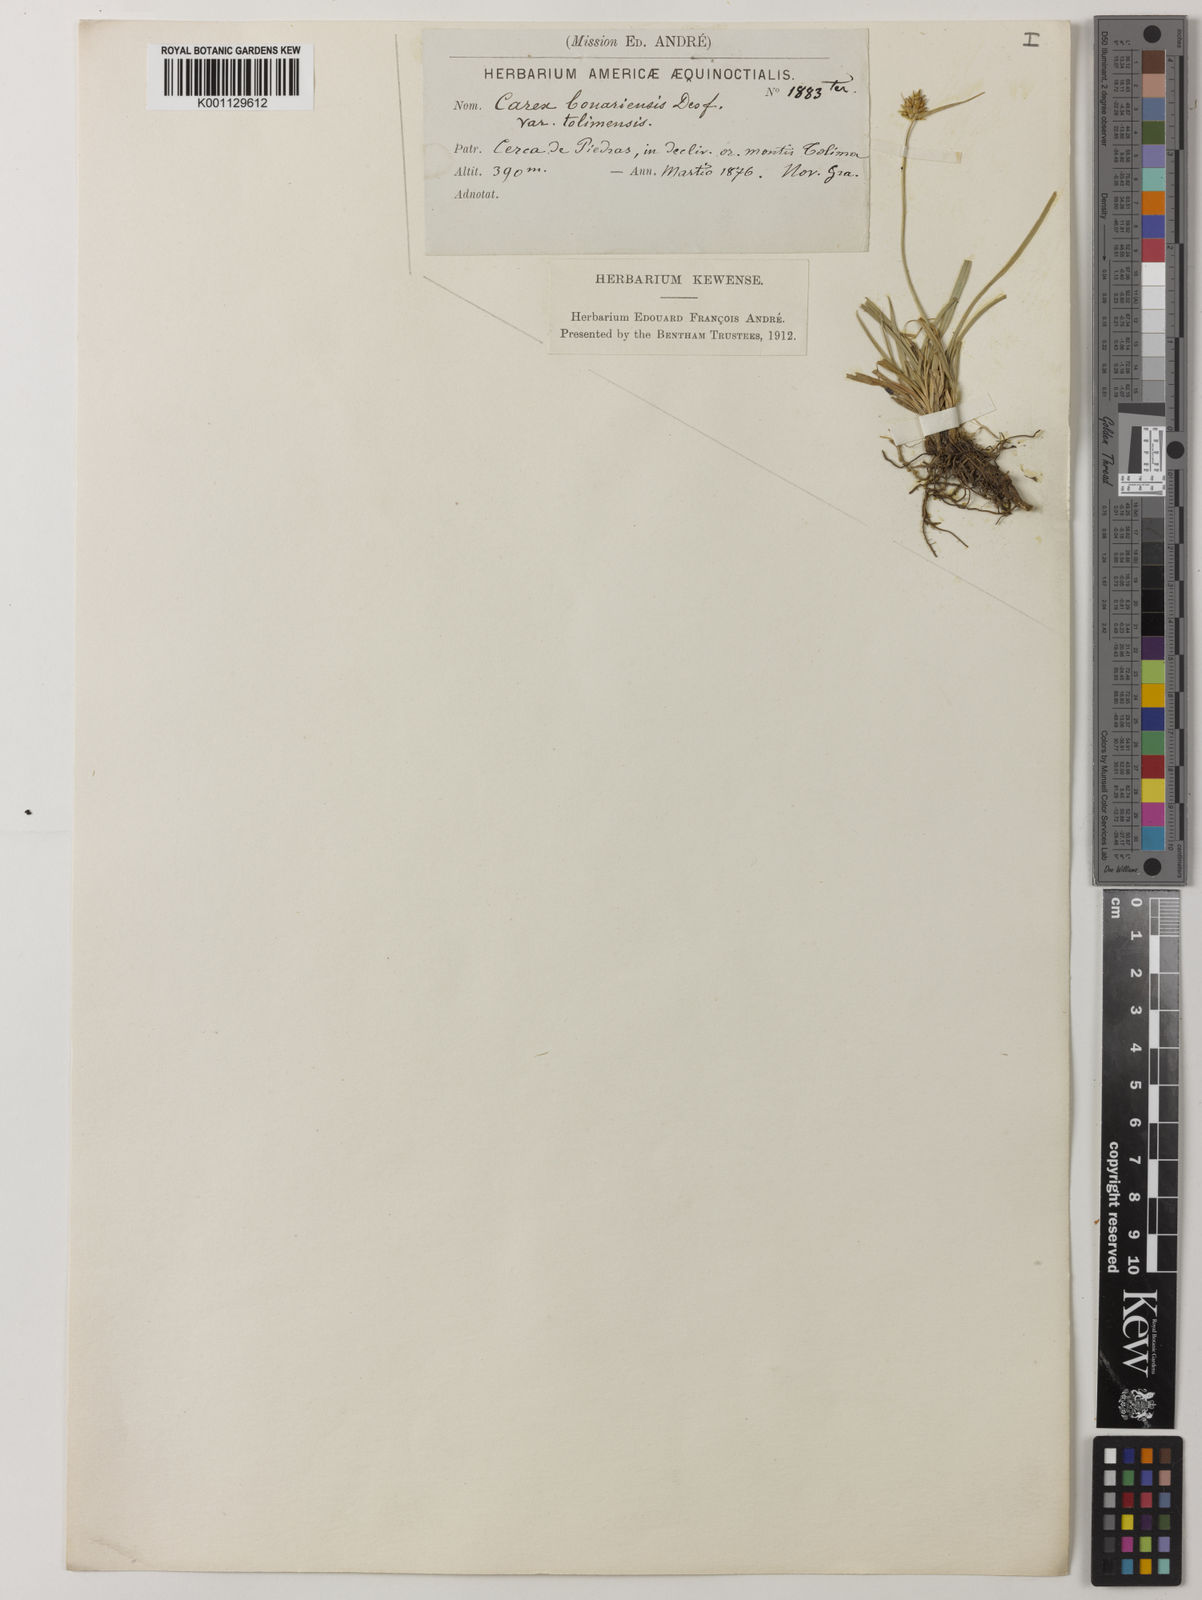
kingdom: Plantae
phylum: Tracheophyta
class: Liliopsida
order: Poales
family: Cyperaceae
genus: Carex
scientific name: Carex bonariensis
